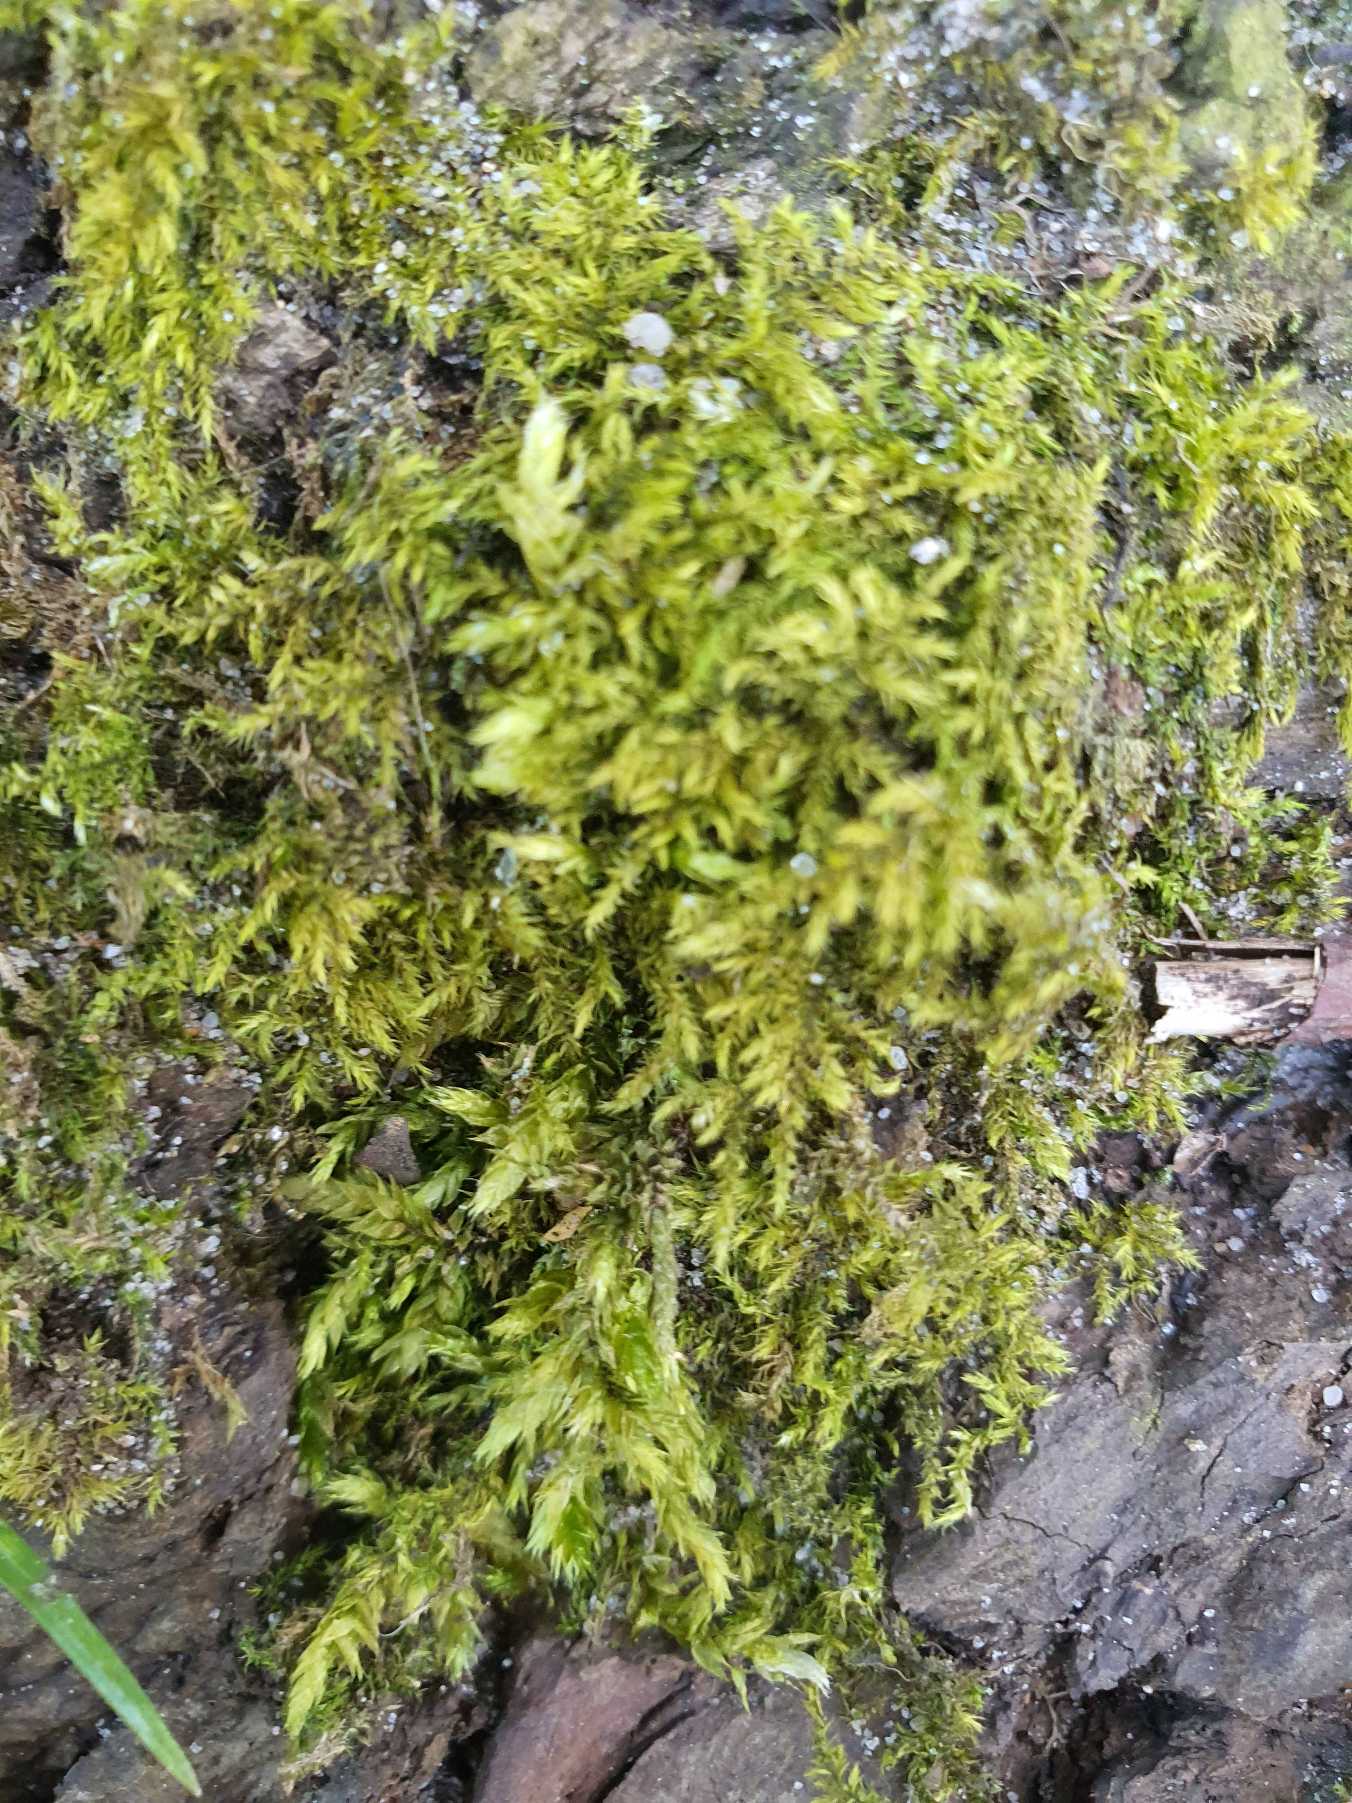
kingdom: Plantae
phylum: Bryophyta
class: Bryopsida
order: Hypnales
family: Brachytheciaceae
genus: Brachythecium
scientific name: Brachythecium rutabulum
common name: Almindelig kortkapsel
